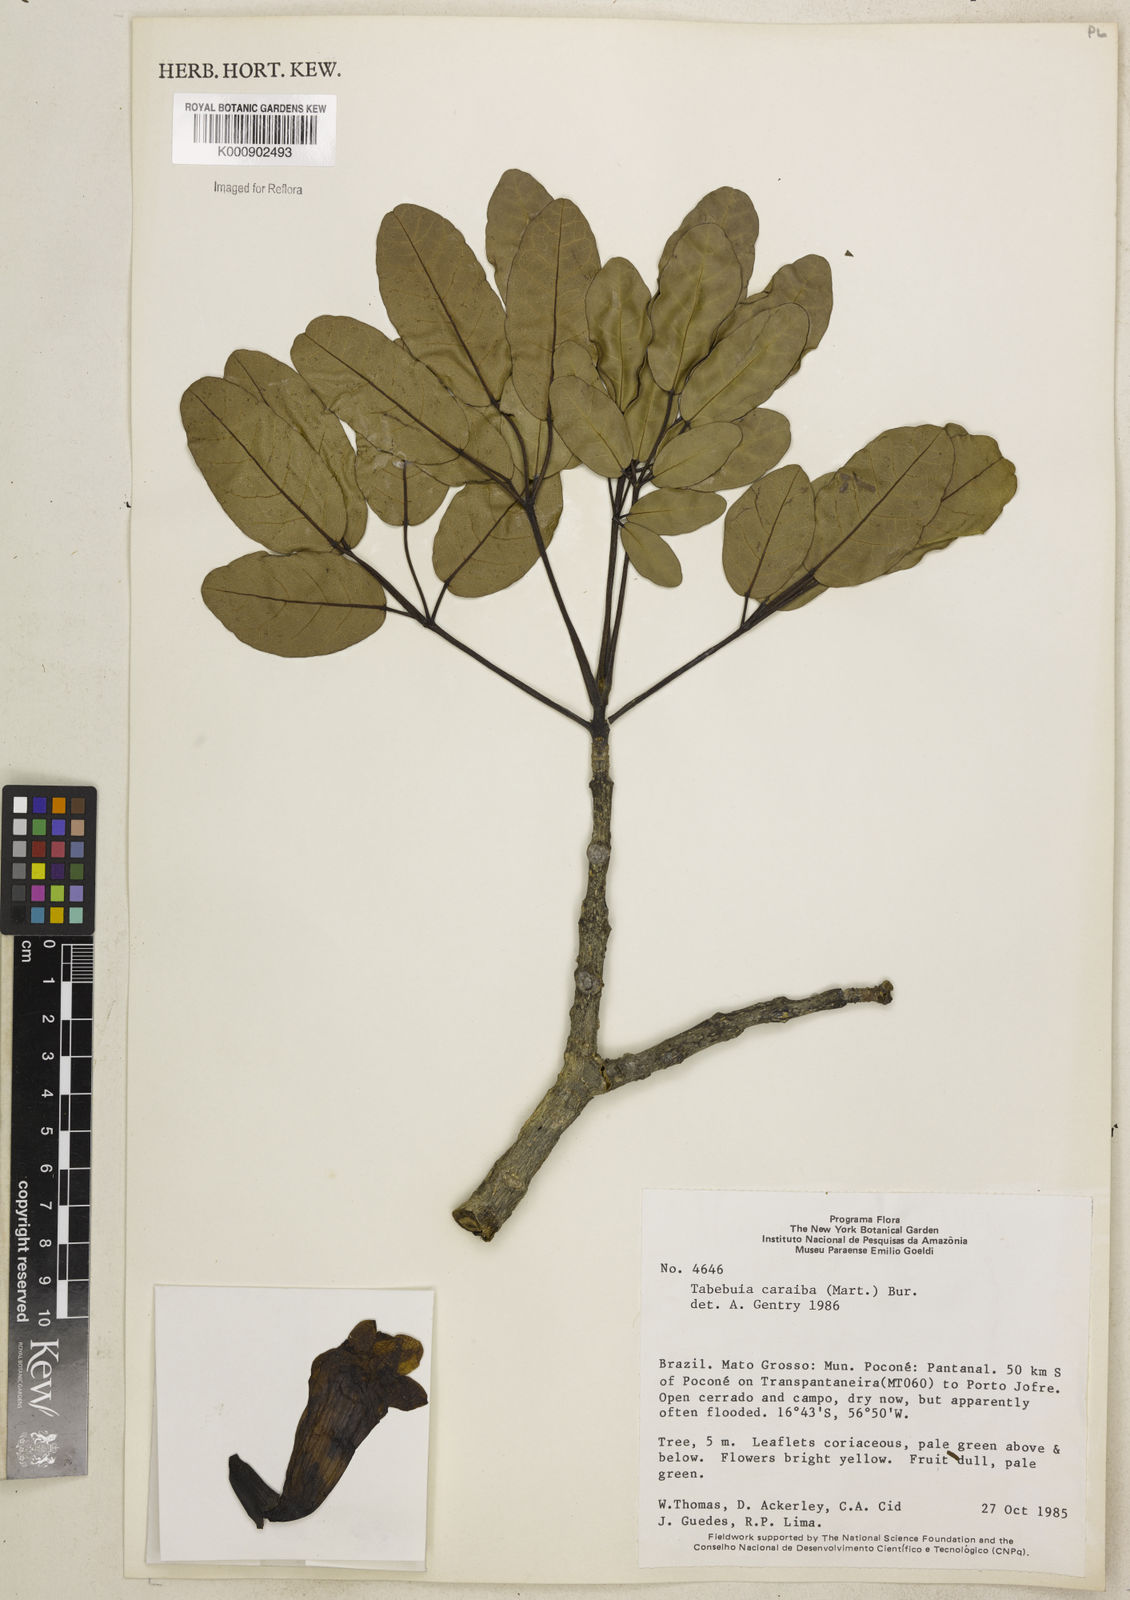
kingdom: Plantae
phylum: Tracheophyta
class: Magnoliopsida
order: Lamiales
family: Bignoniaceae
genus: Tabebuia
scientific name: Tabebuia aurea
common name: Caribbean trumpet-tree
